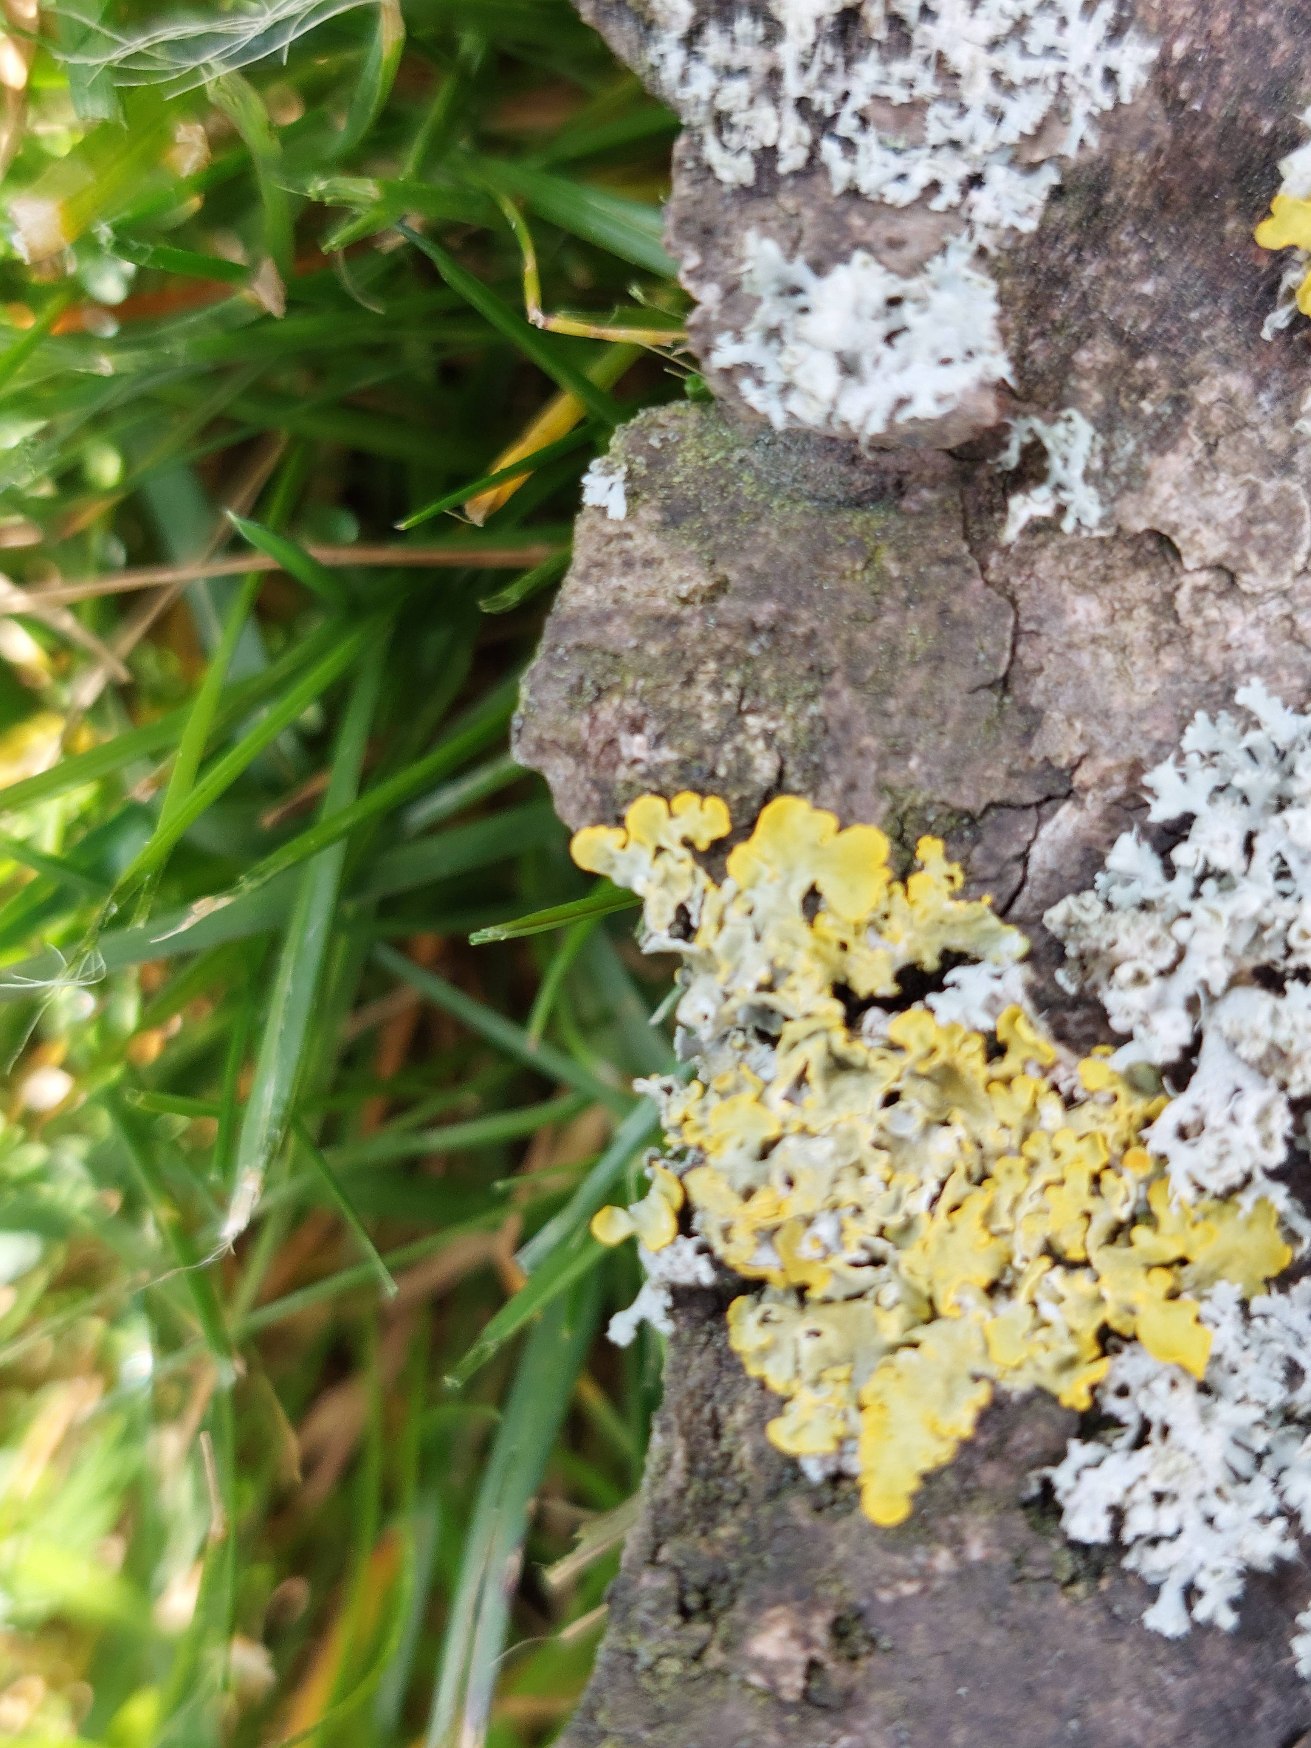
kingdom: Fungi
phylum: Ascomycota
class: Lecanoromycetes
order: Teloschistales
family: Teloschistaceae
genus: Xanthoria
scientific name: Xanthoria parietina
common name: Almindelig væggelav
